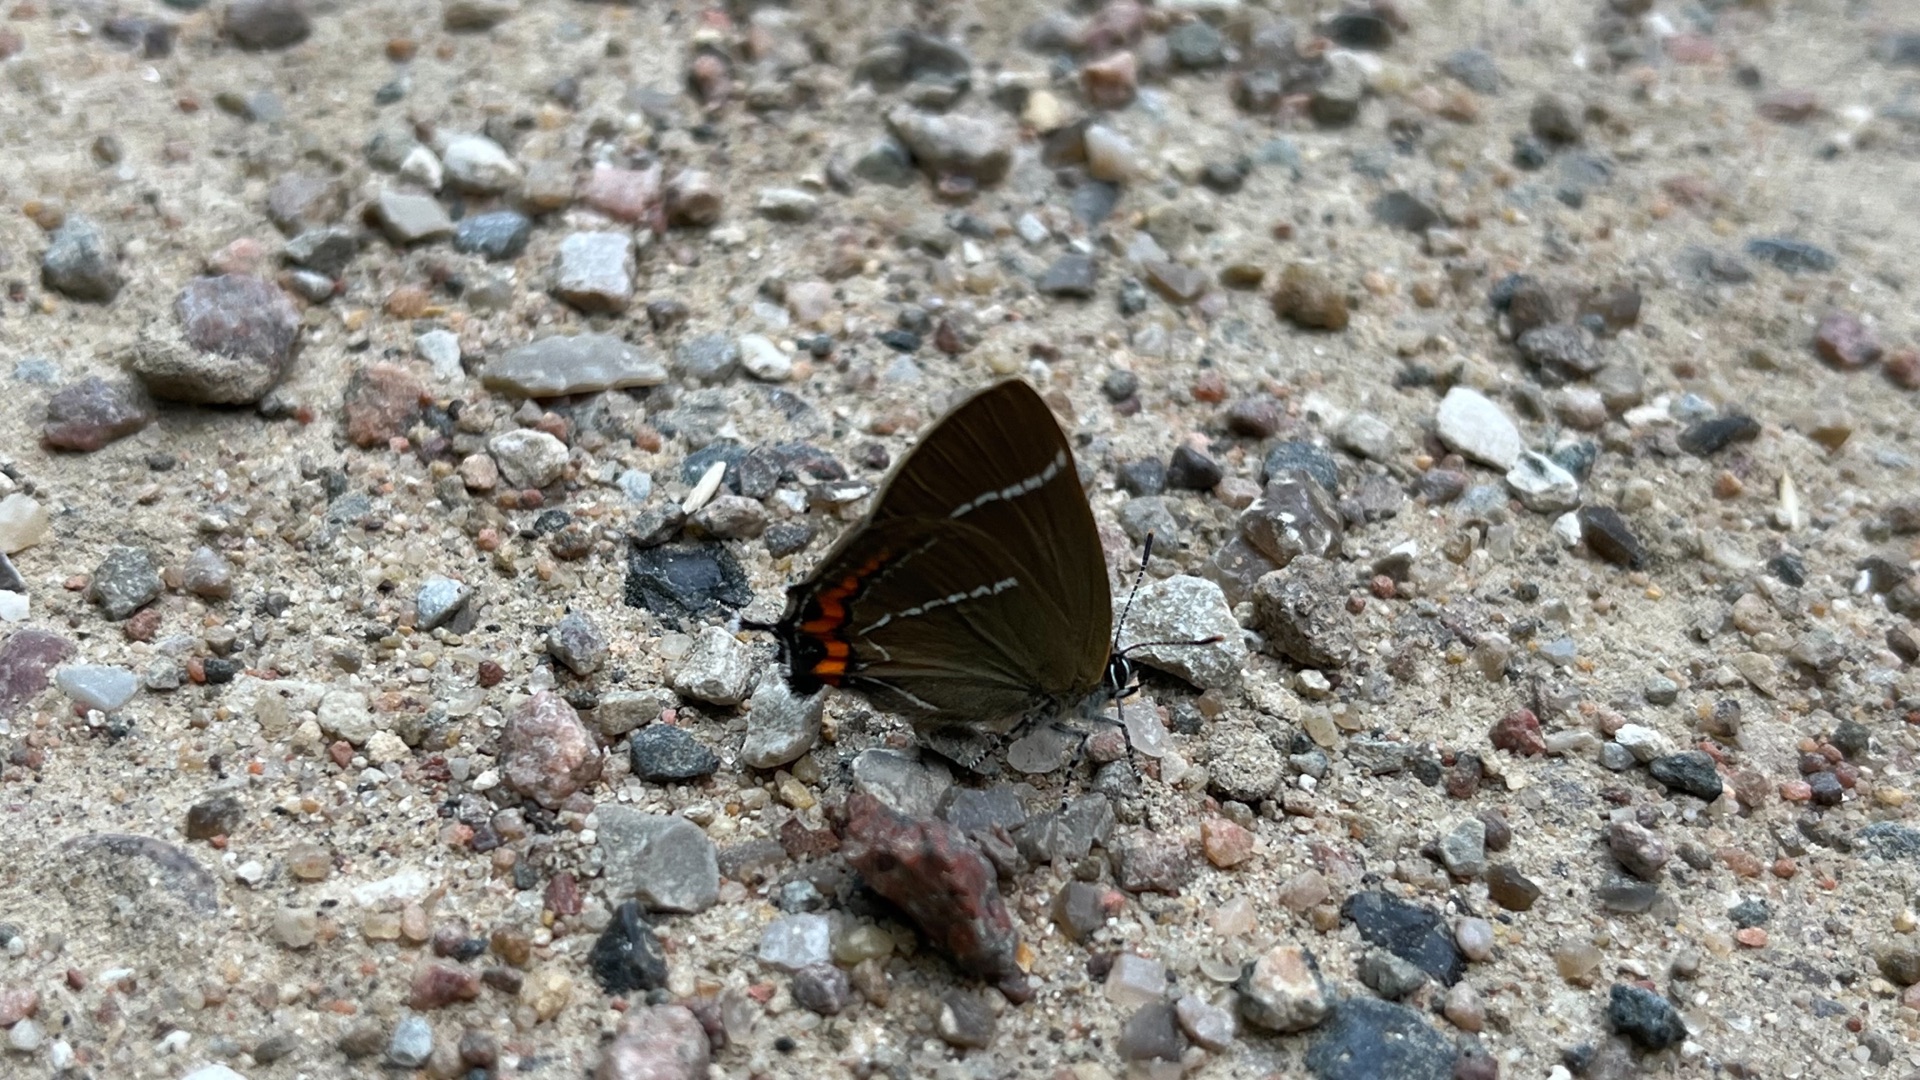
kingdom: Animalia
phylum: Arthropoda
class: Insecta
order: Lepidoptera
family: Lycaenidae
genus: Satyrium
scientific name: Satyrium w-album
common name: Det hvide W
